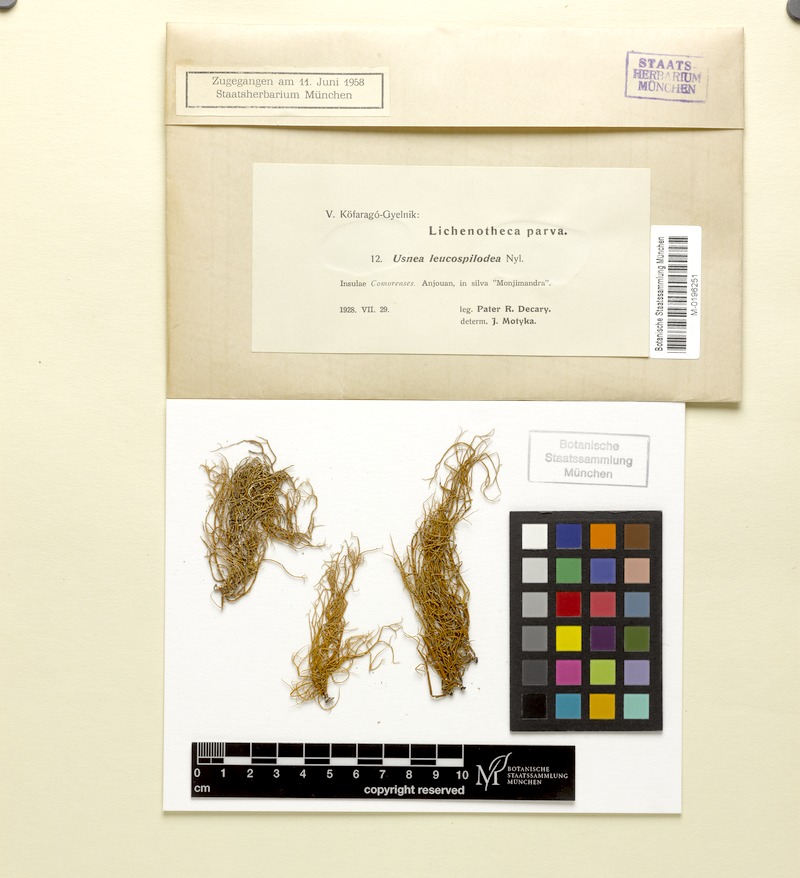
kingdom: Fungi
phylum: Ascomycota
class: Lecanoromycetes
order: Lecanorales
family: Parmeliaceae
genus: Usnea
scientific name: Usnea leucospilodea
